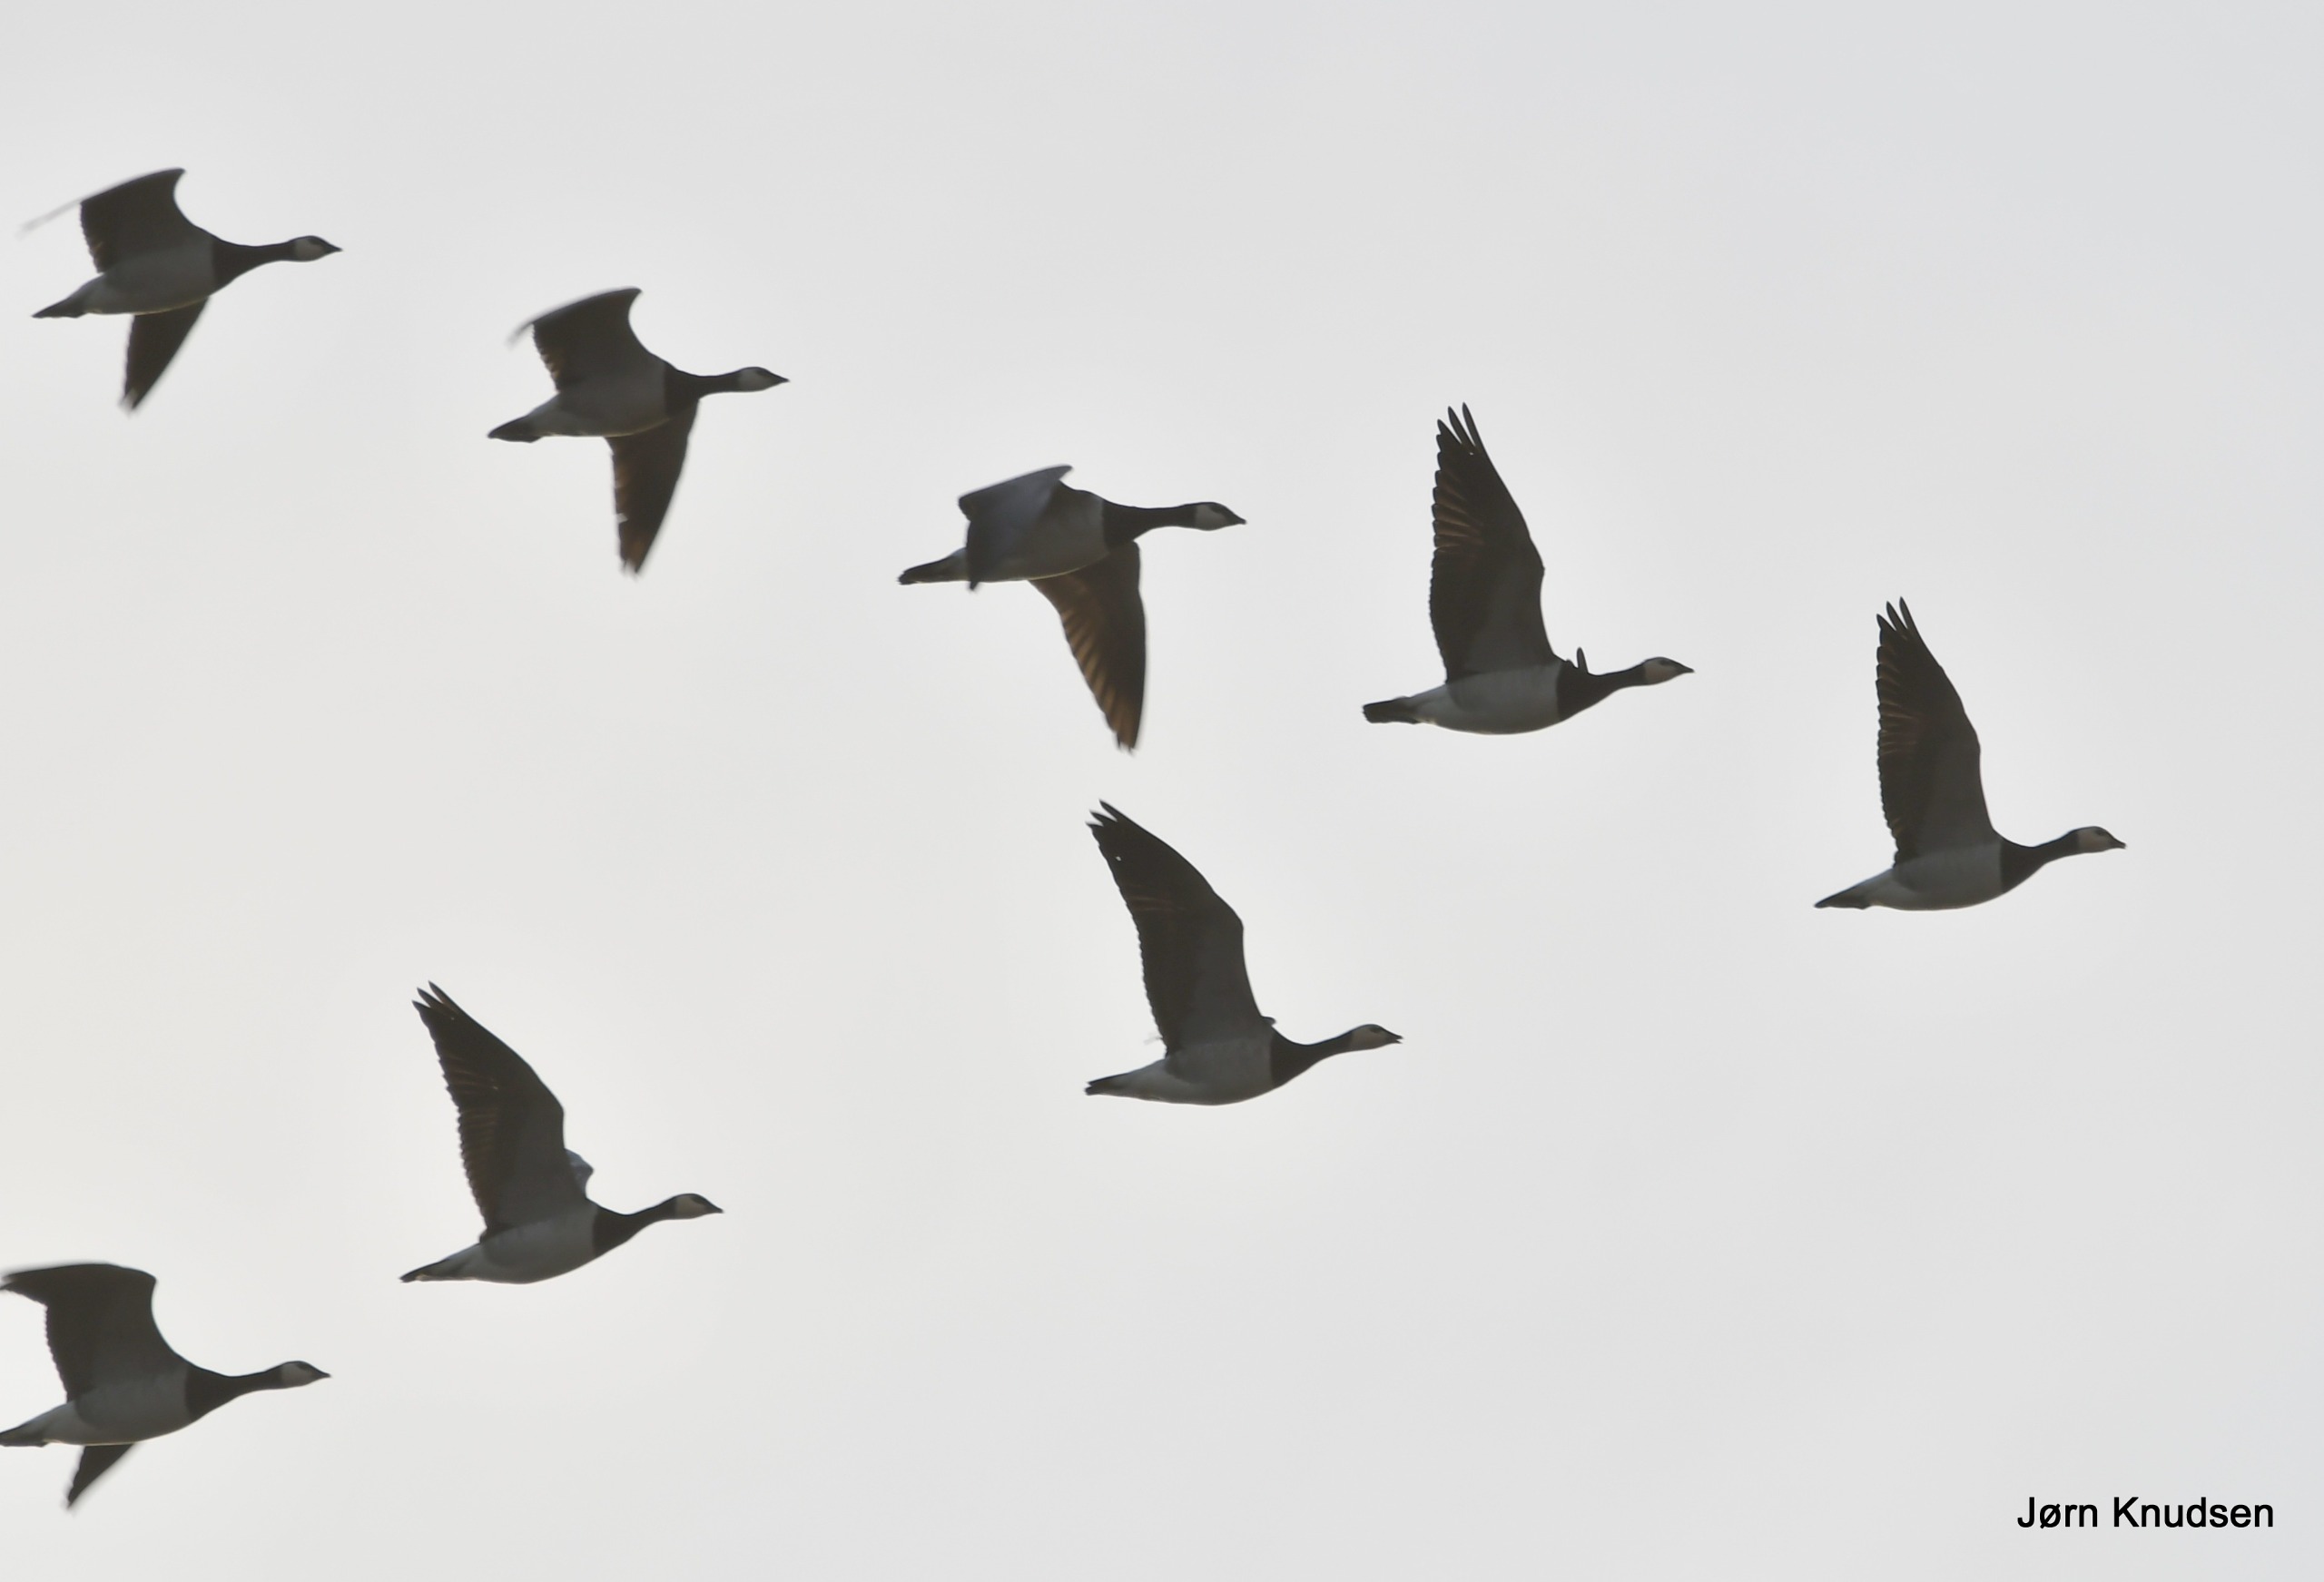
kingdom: Animalia
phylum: Chordata
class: Aves
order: Anseriformes
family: Anatidae
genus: Branta
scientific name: Branta leucopsis
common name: Bramgås
